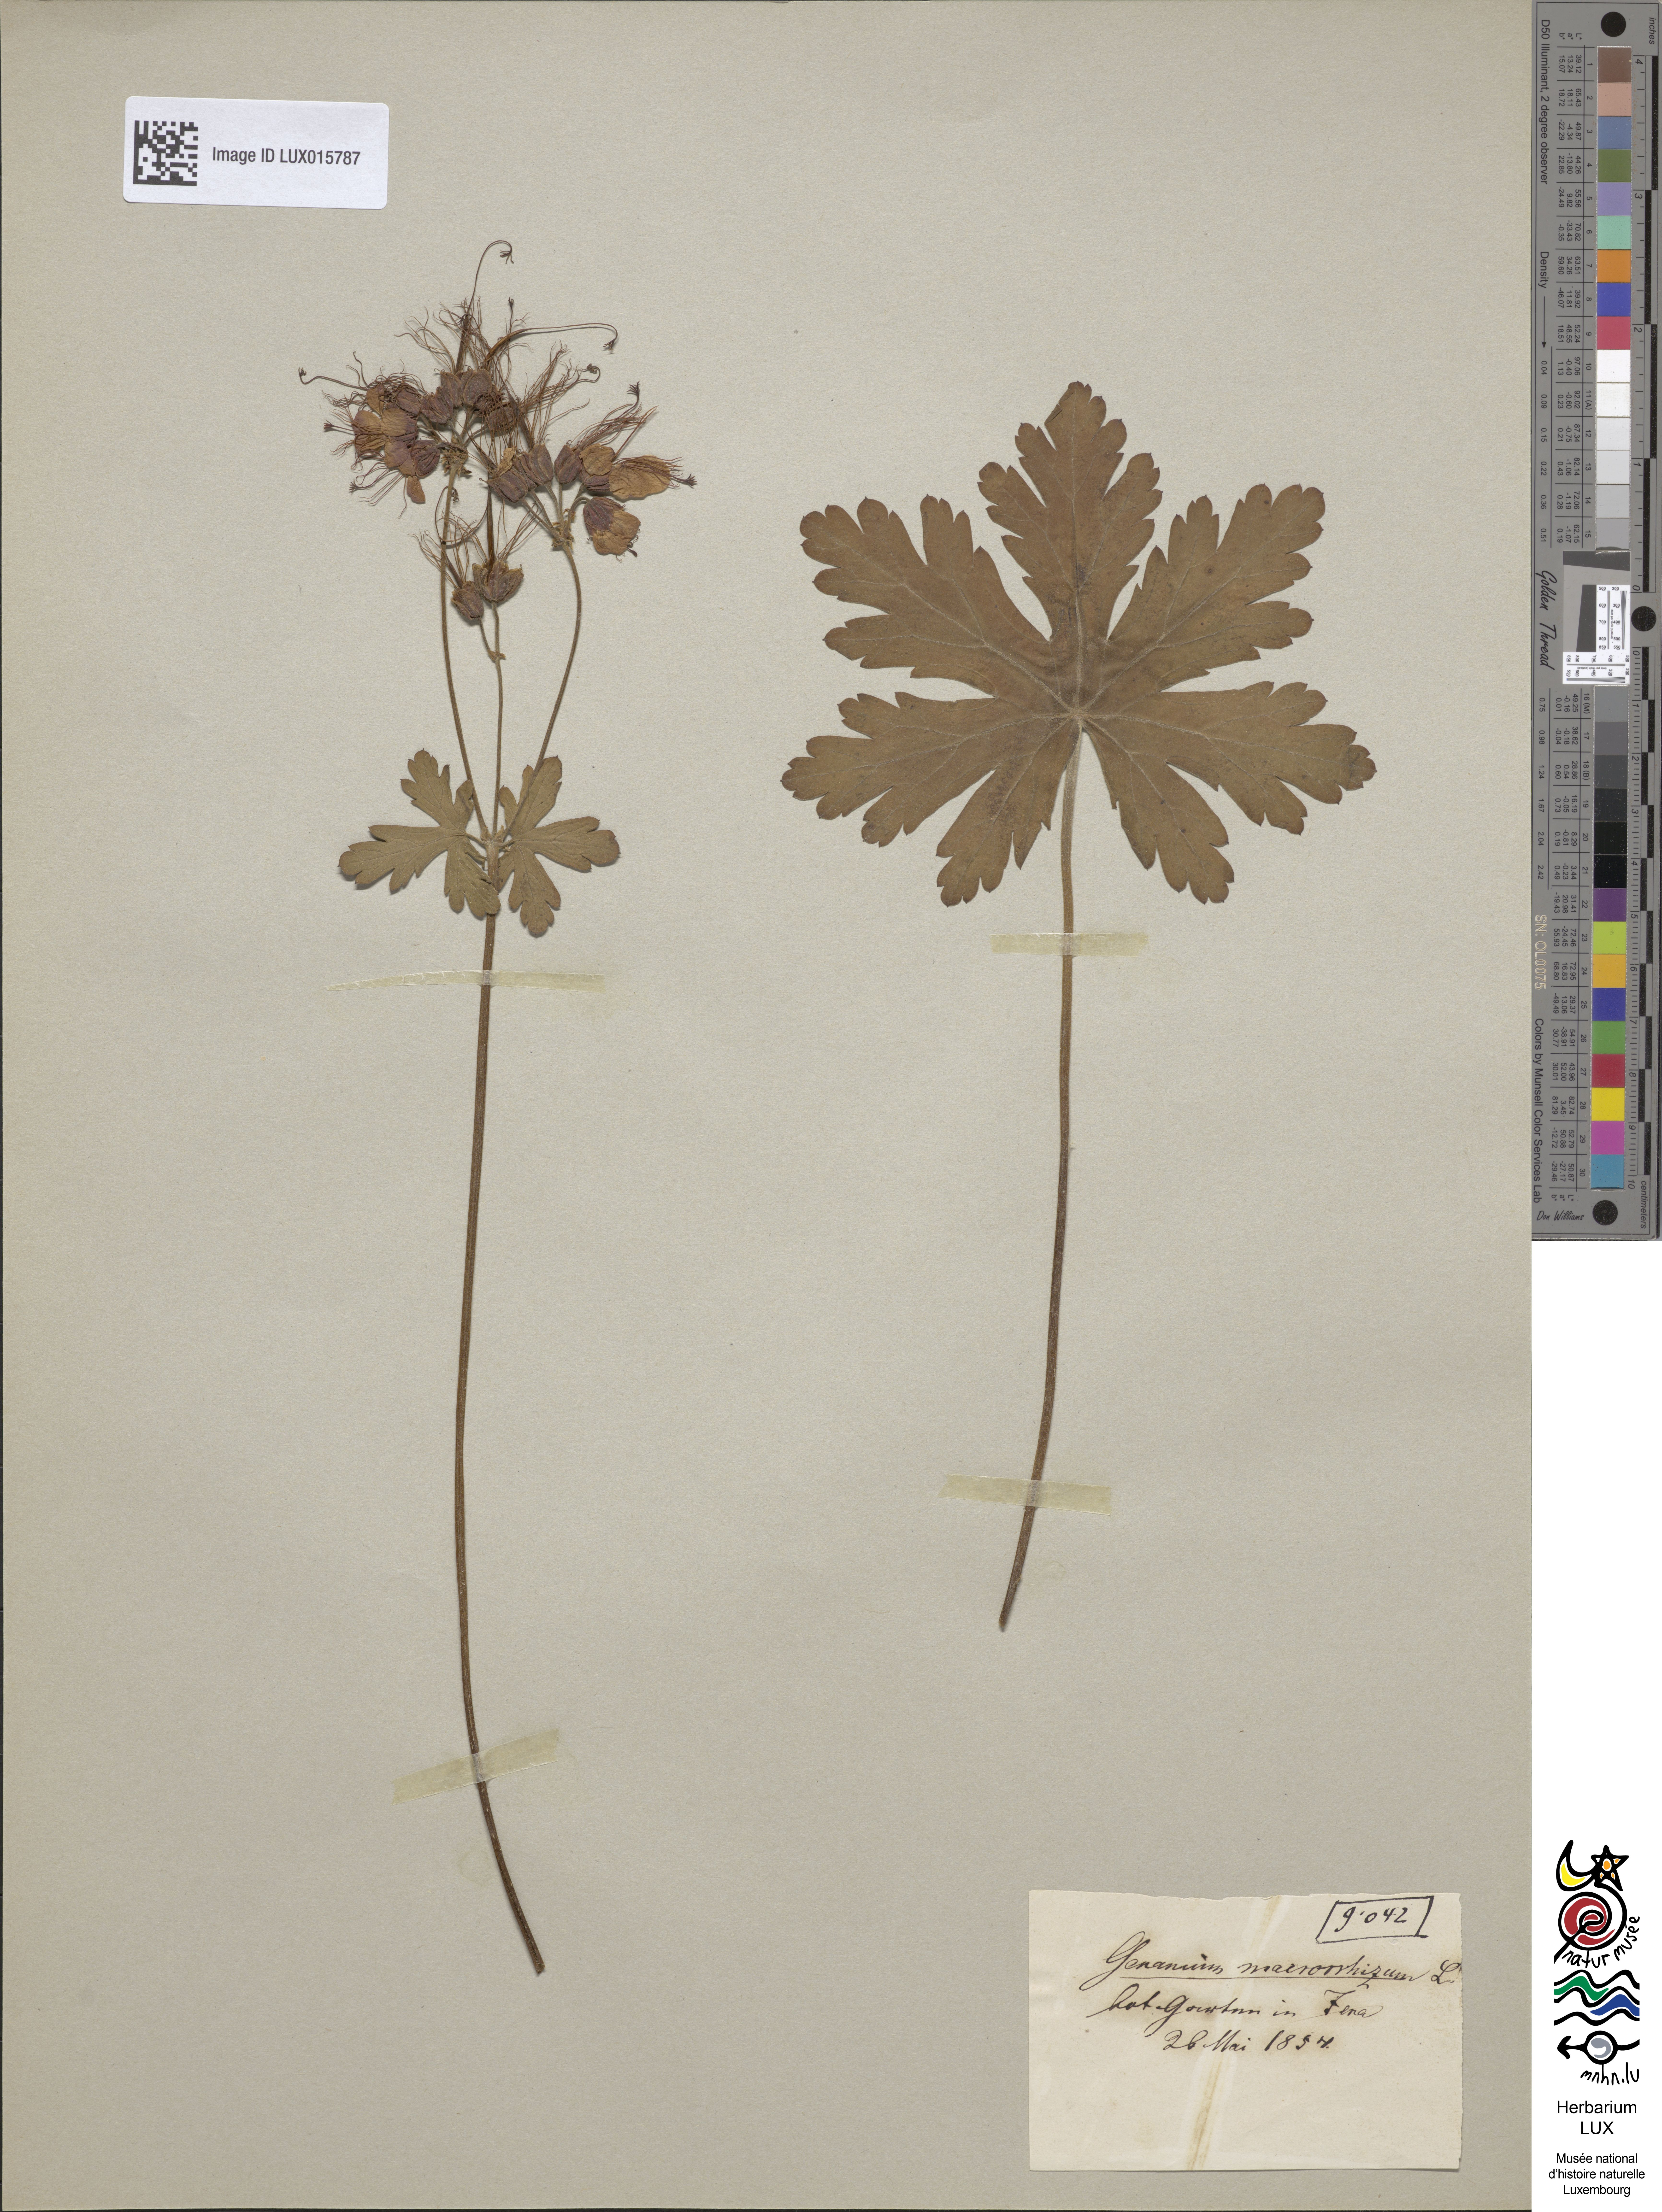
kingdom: Plantae
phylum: Tracheophyta
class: Magnoliopsida
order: Geraniales
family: Geraniaceae
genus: Geranium
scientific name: Geranium macrorrhizum
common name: Rock crane's-bill
